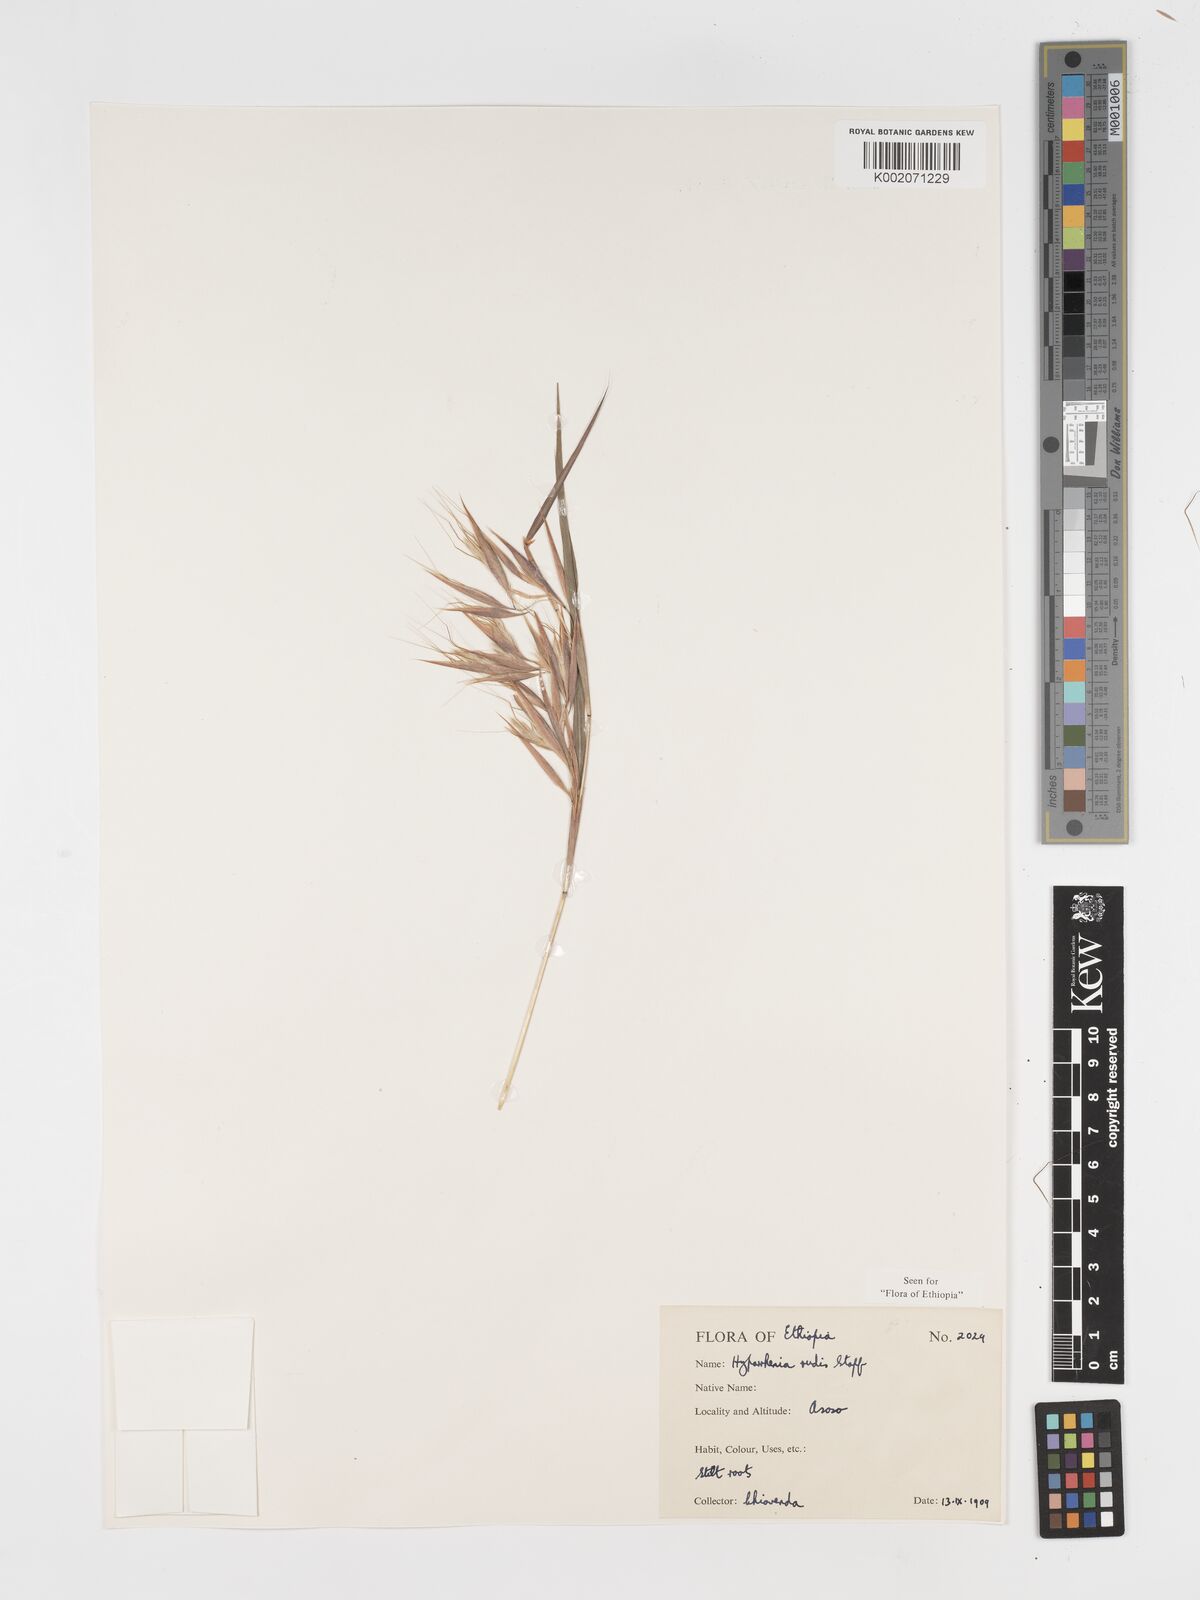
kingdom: Plantae
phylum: Tracheophyta
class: Liliopsida
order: Poales
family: Poaceae
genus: Hyparrhenia
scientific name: Hyparrhenia rudis
